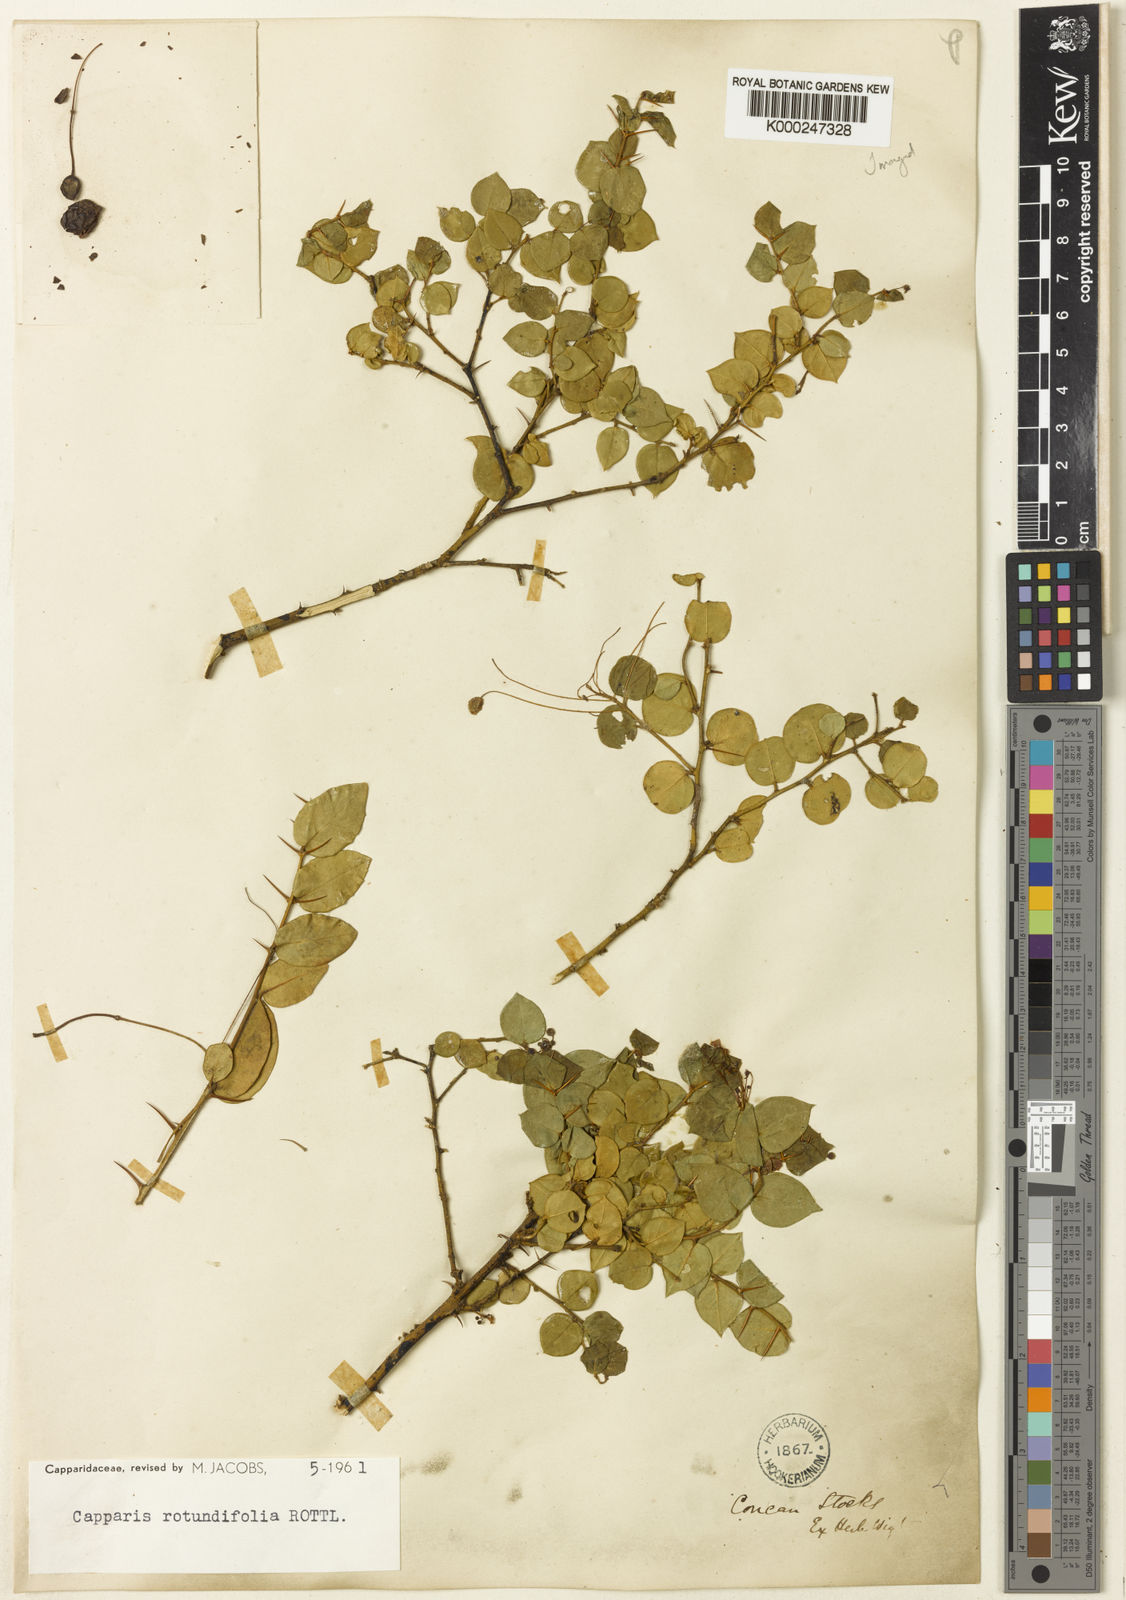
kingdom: Plantae
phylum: Tracheophyta
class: Magnoliopsida
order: Brassicales
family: Capparaceae
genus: Capparis
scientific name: Capparis rotundifolia
